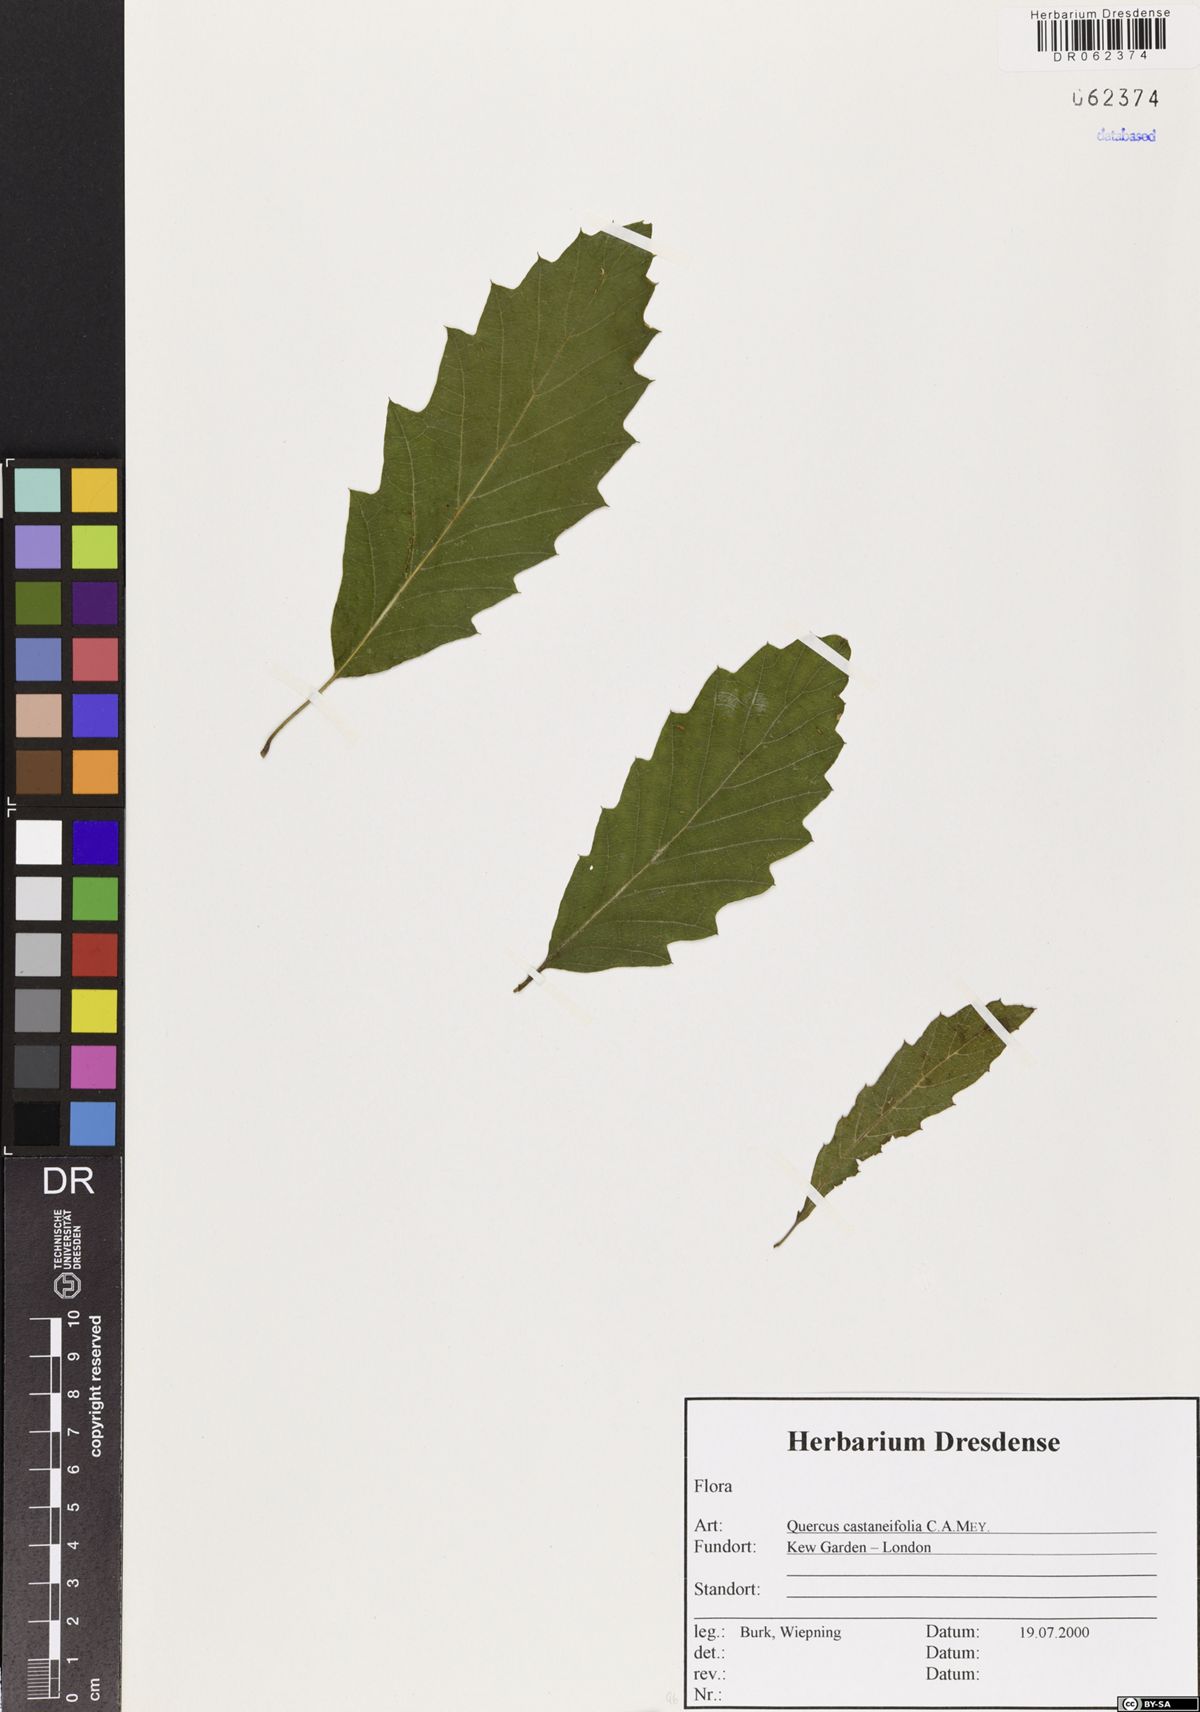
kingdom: Plantae
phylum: Tracheophyta
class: Magnoliopsida
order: Fagales
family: Fagaceae
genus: Quercus
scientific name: Quercus castaneifolia
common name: Chestnut-leaved oak
